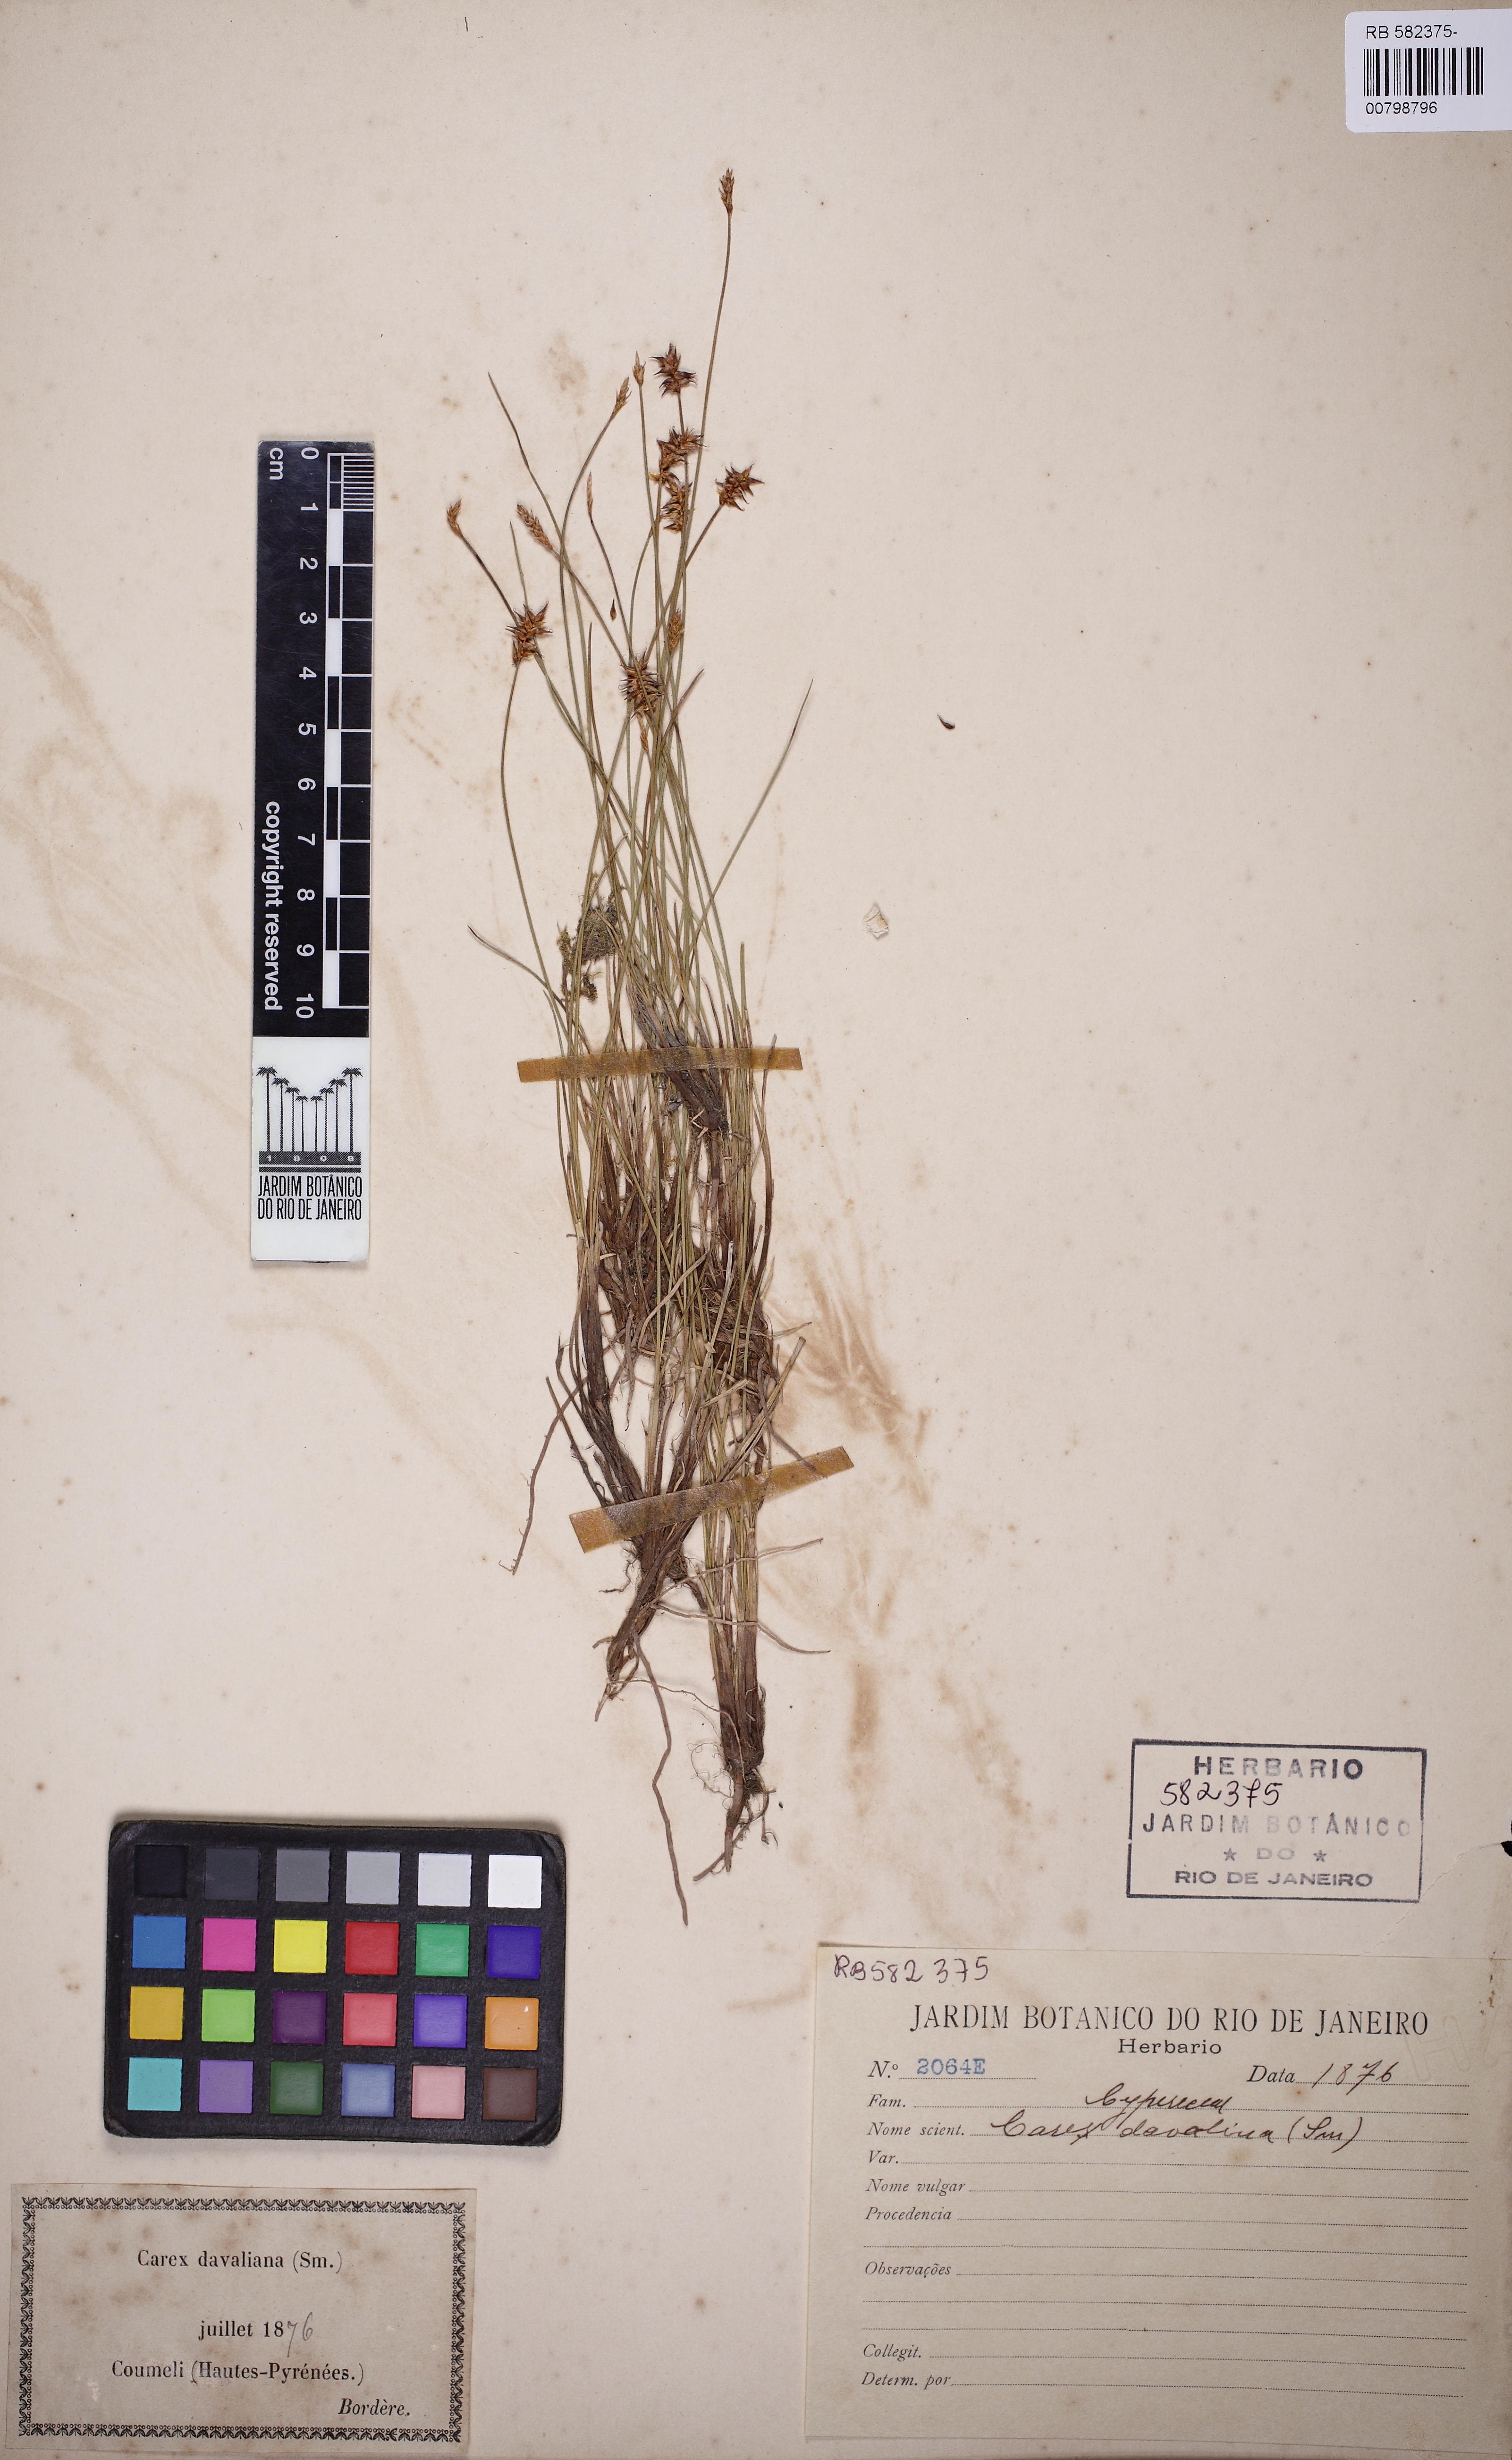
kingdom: Plantae
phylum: Tracheophyta
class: Liliopsida
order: Poales
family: Cyperaceae
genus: Carex
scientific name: Carex davalliana
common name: Davall's sedge
